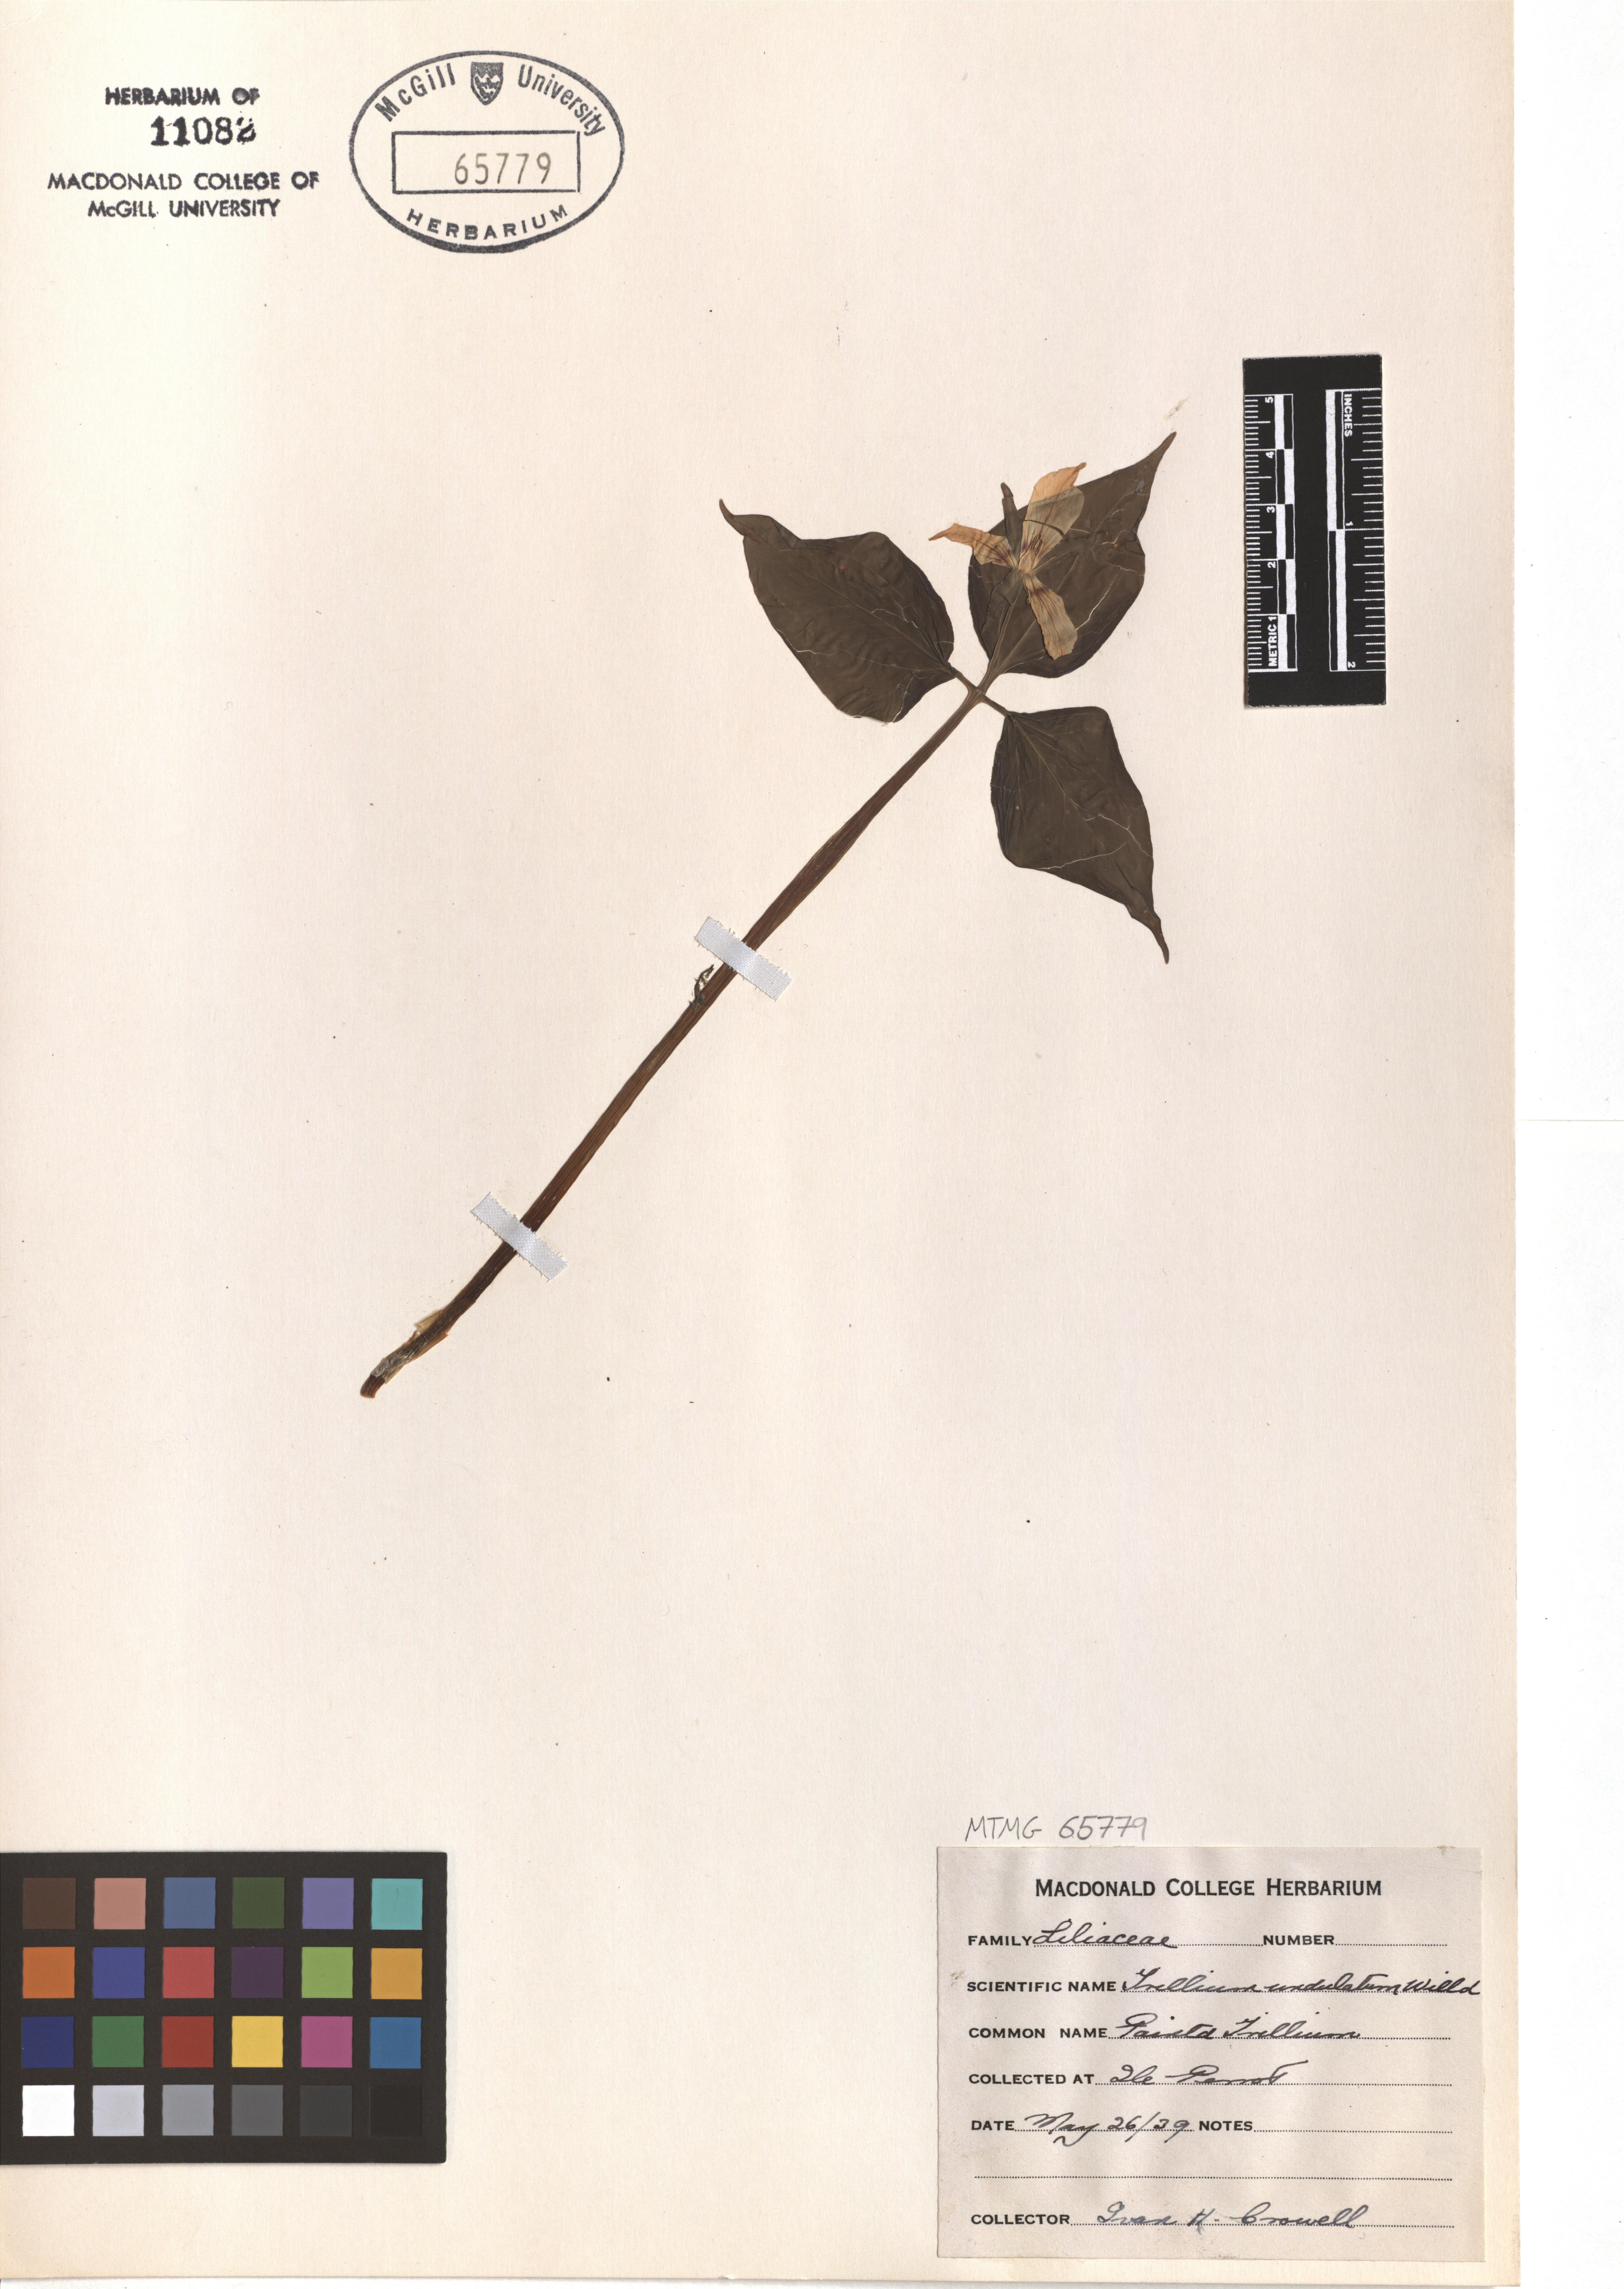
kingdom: Plantae
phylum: Tracheophyta
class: Liliopsida
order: Liliales
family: Melanthiaceae
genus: Trillium
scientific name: Trillium undulatum
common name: Paint trillium
